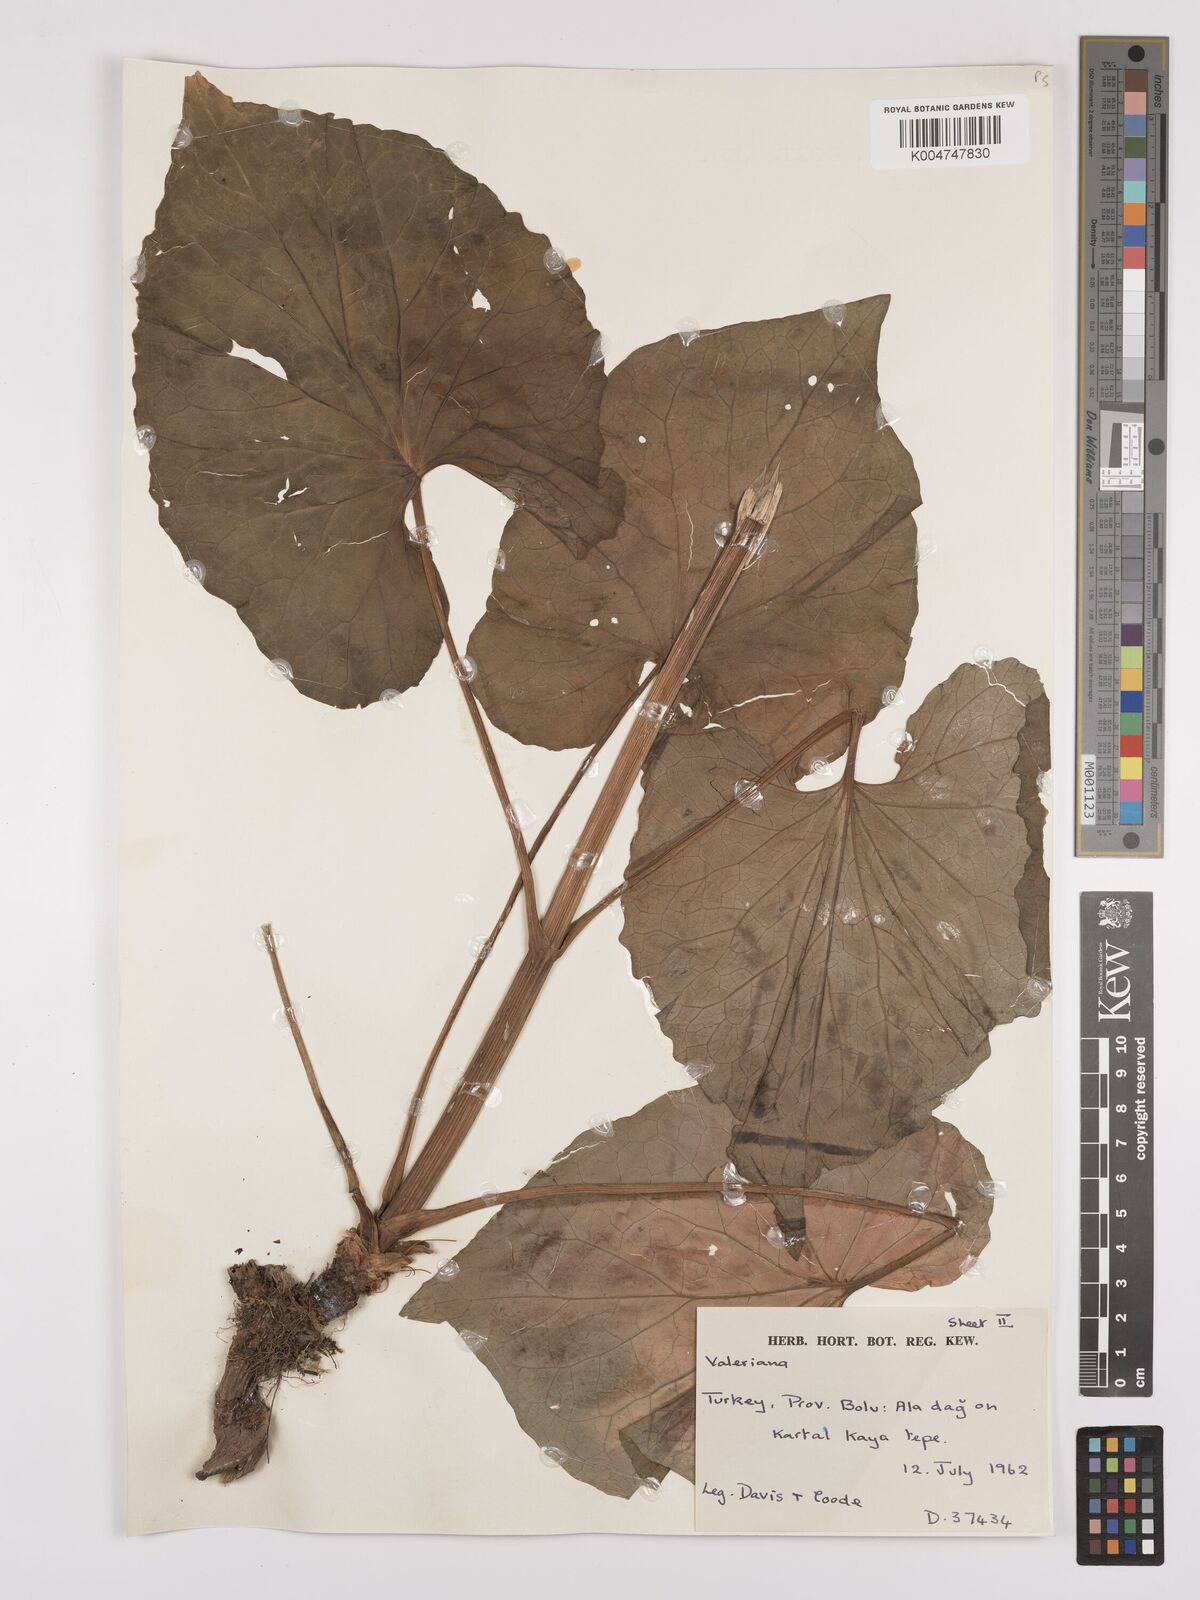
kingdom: Plantae
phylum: Tracheophyta
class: Magnoliopsida
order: Dipsacales
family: Caprifoliaceae
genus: Valeriana
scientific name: Valeriana
